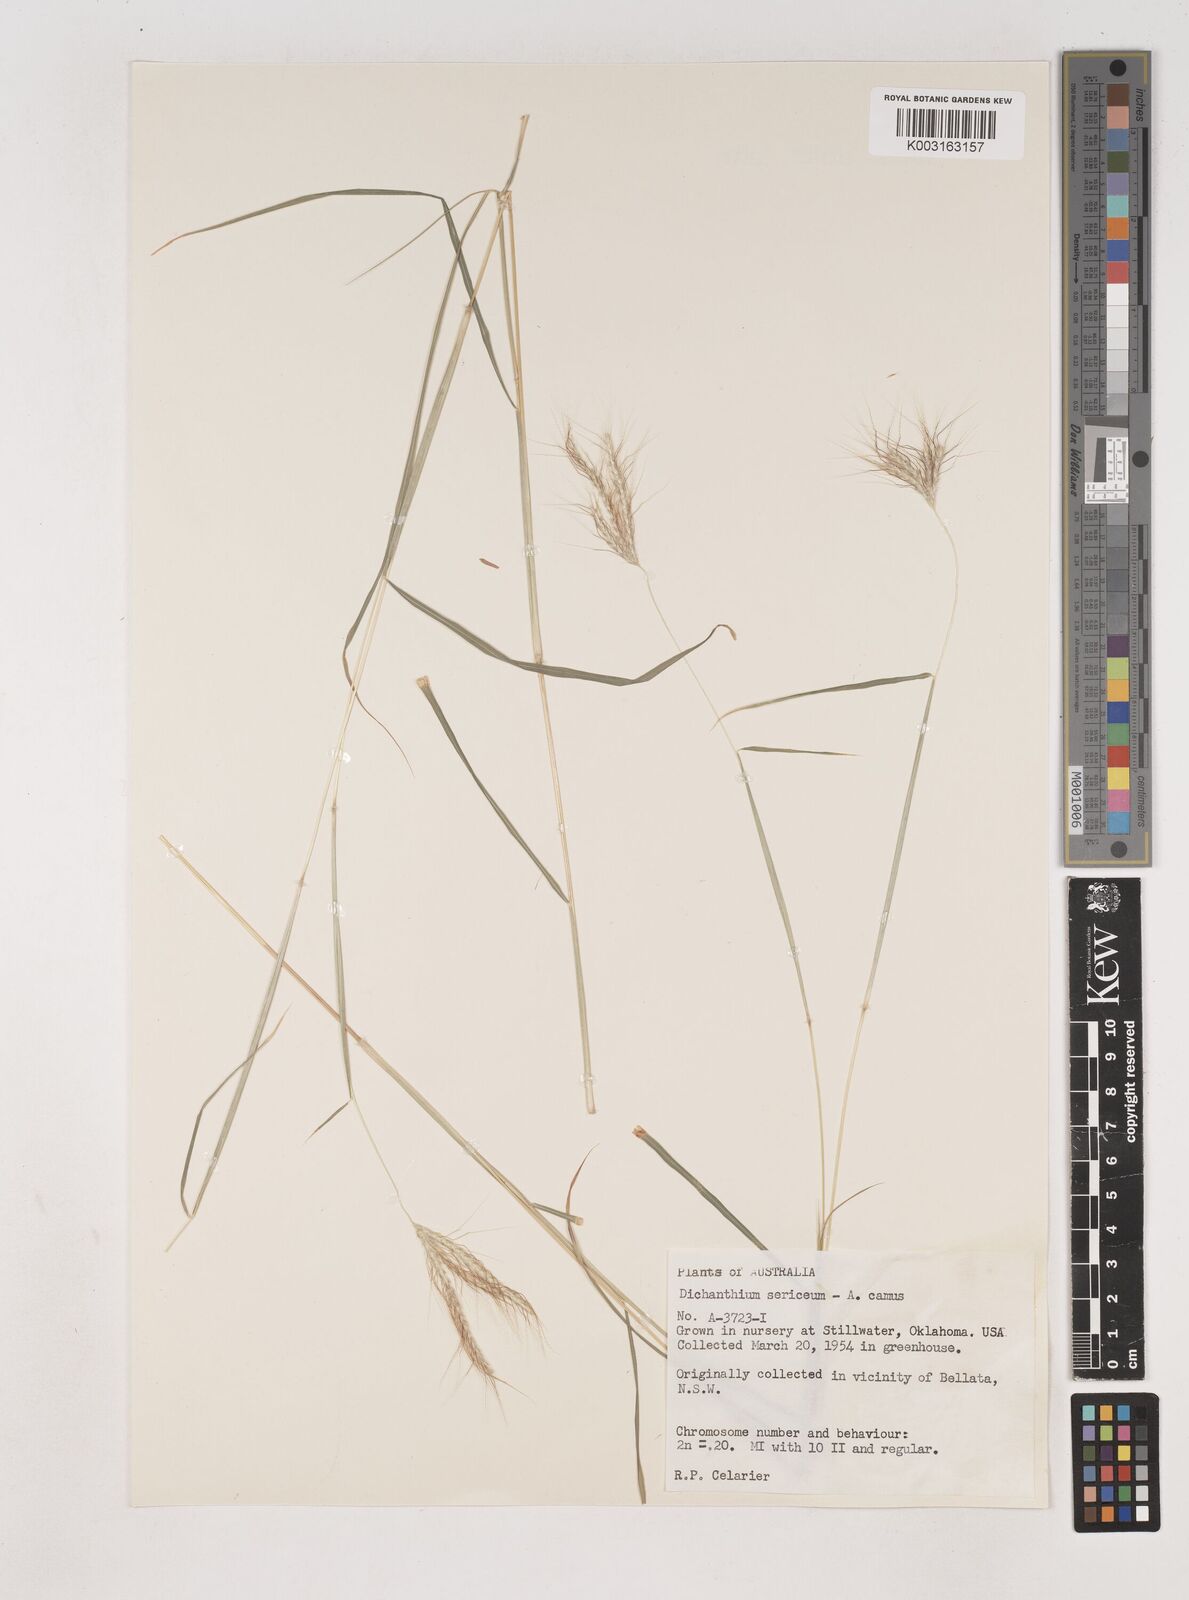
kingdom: Plantae
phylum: Tracheophyta
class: Liliopsida
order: Poales
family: Poaceae
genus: Dichanthium
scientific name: Dichanthium sericeum
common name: Silky bluestem
